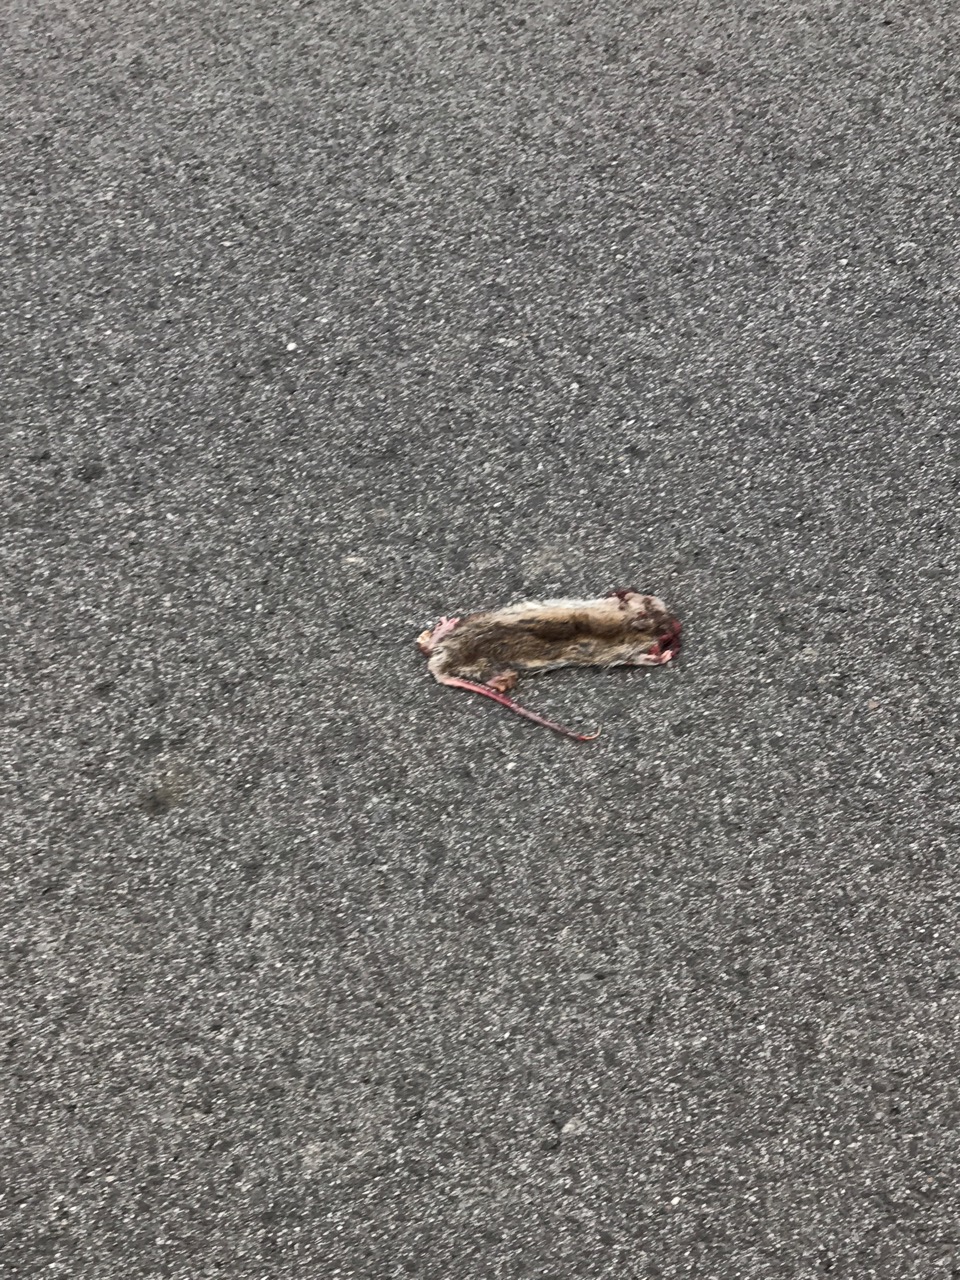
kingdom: Animalia
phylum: Chordata
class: Mammalia
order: Rodentia
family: Muridae
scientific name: Muridae
